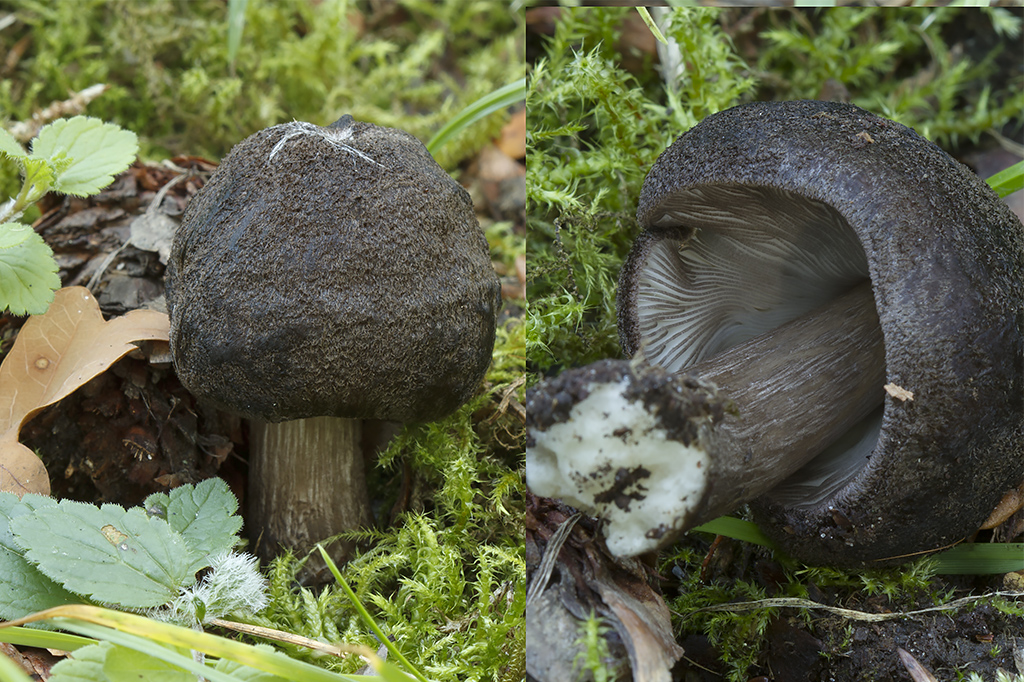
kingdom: Fungi
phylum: Basidiomycota
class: Agaricomycetes
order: Agaricales
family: Pluteaceae
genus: Pluteus
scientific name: Pluteus atromarginatus
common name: sortrandet skærmhat
